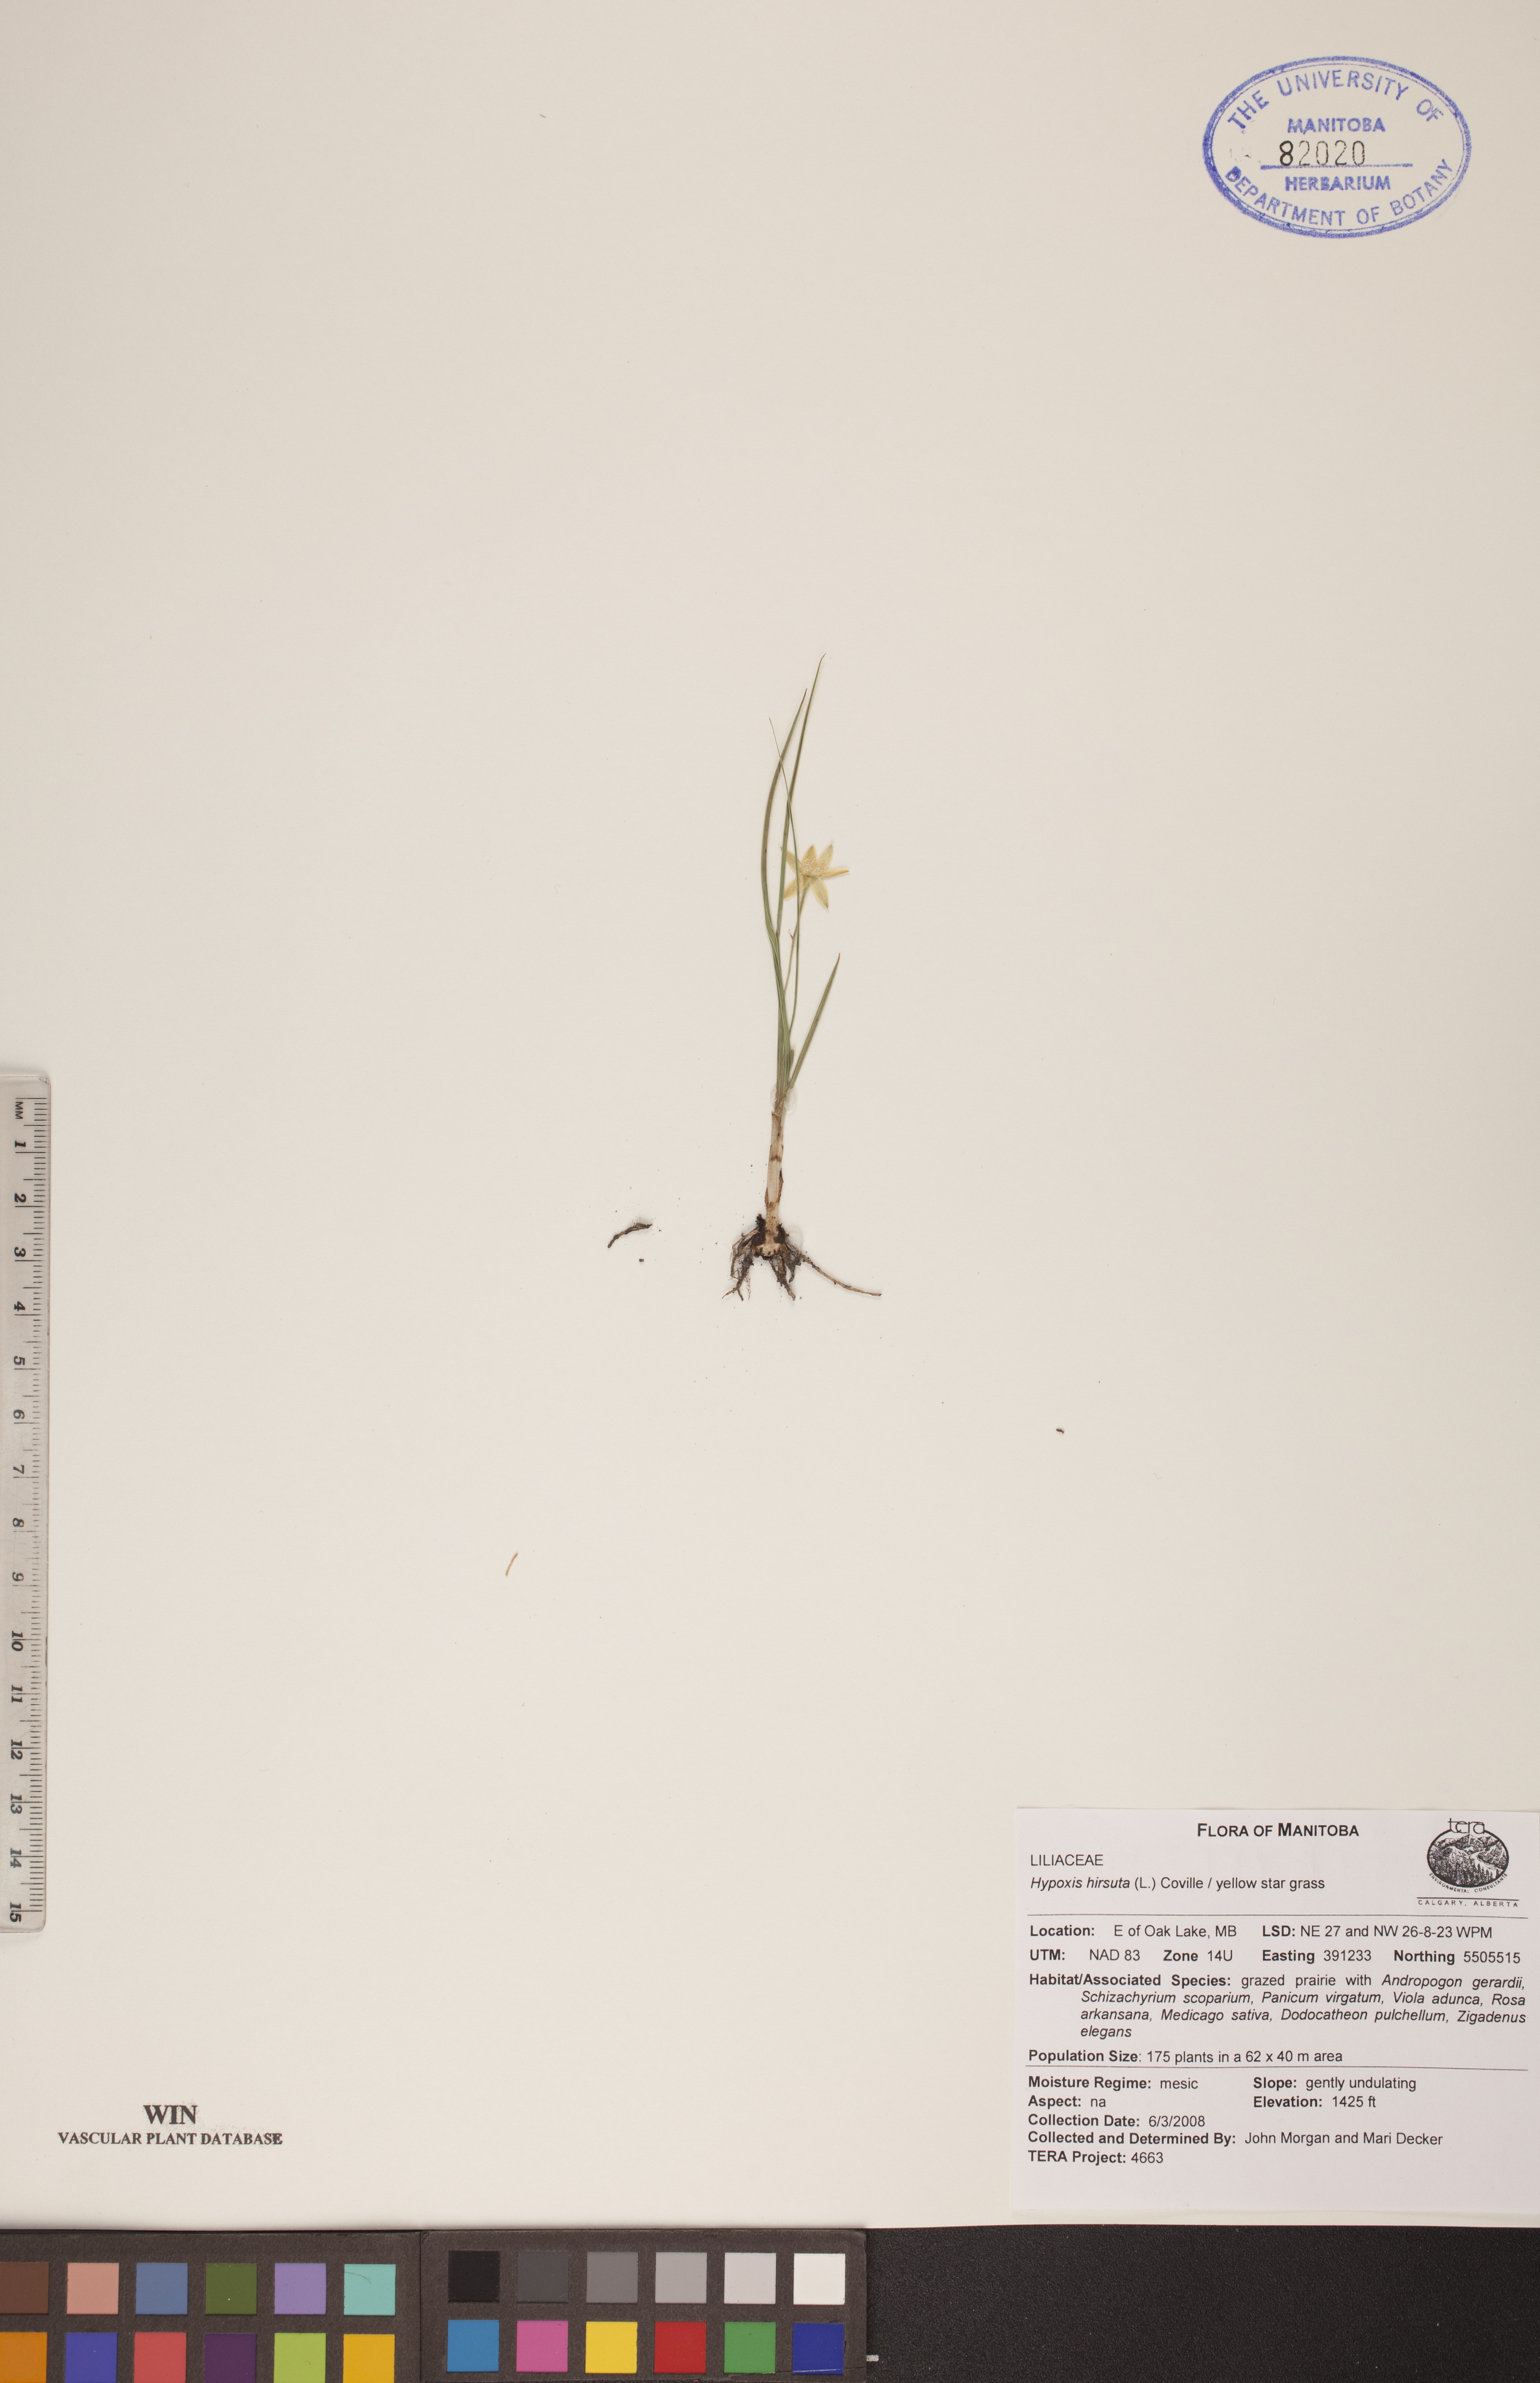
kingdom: Plantae
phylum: Tracheophyta
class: Liliopsida
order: Asparagales
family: Hypoxidaceae
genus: Hypoxis
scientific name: Hypoxis hirsuta
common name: Common goldstar
